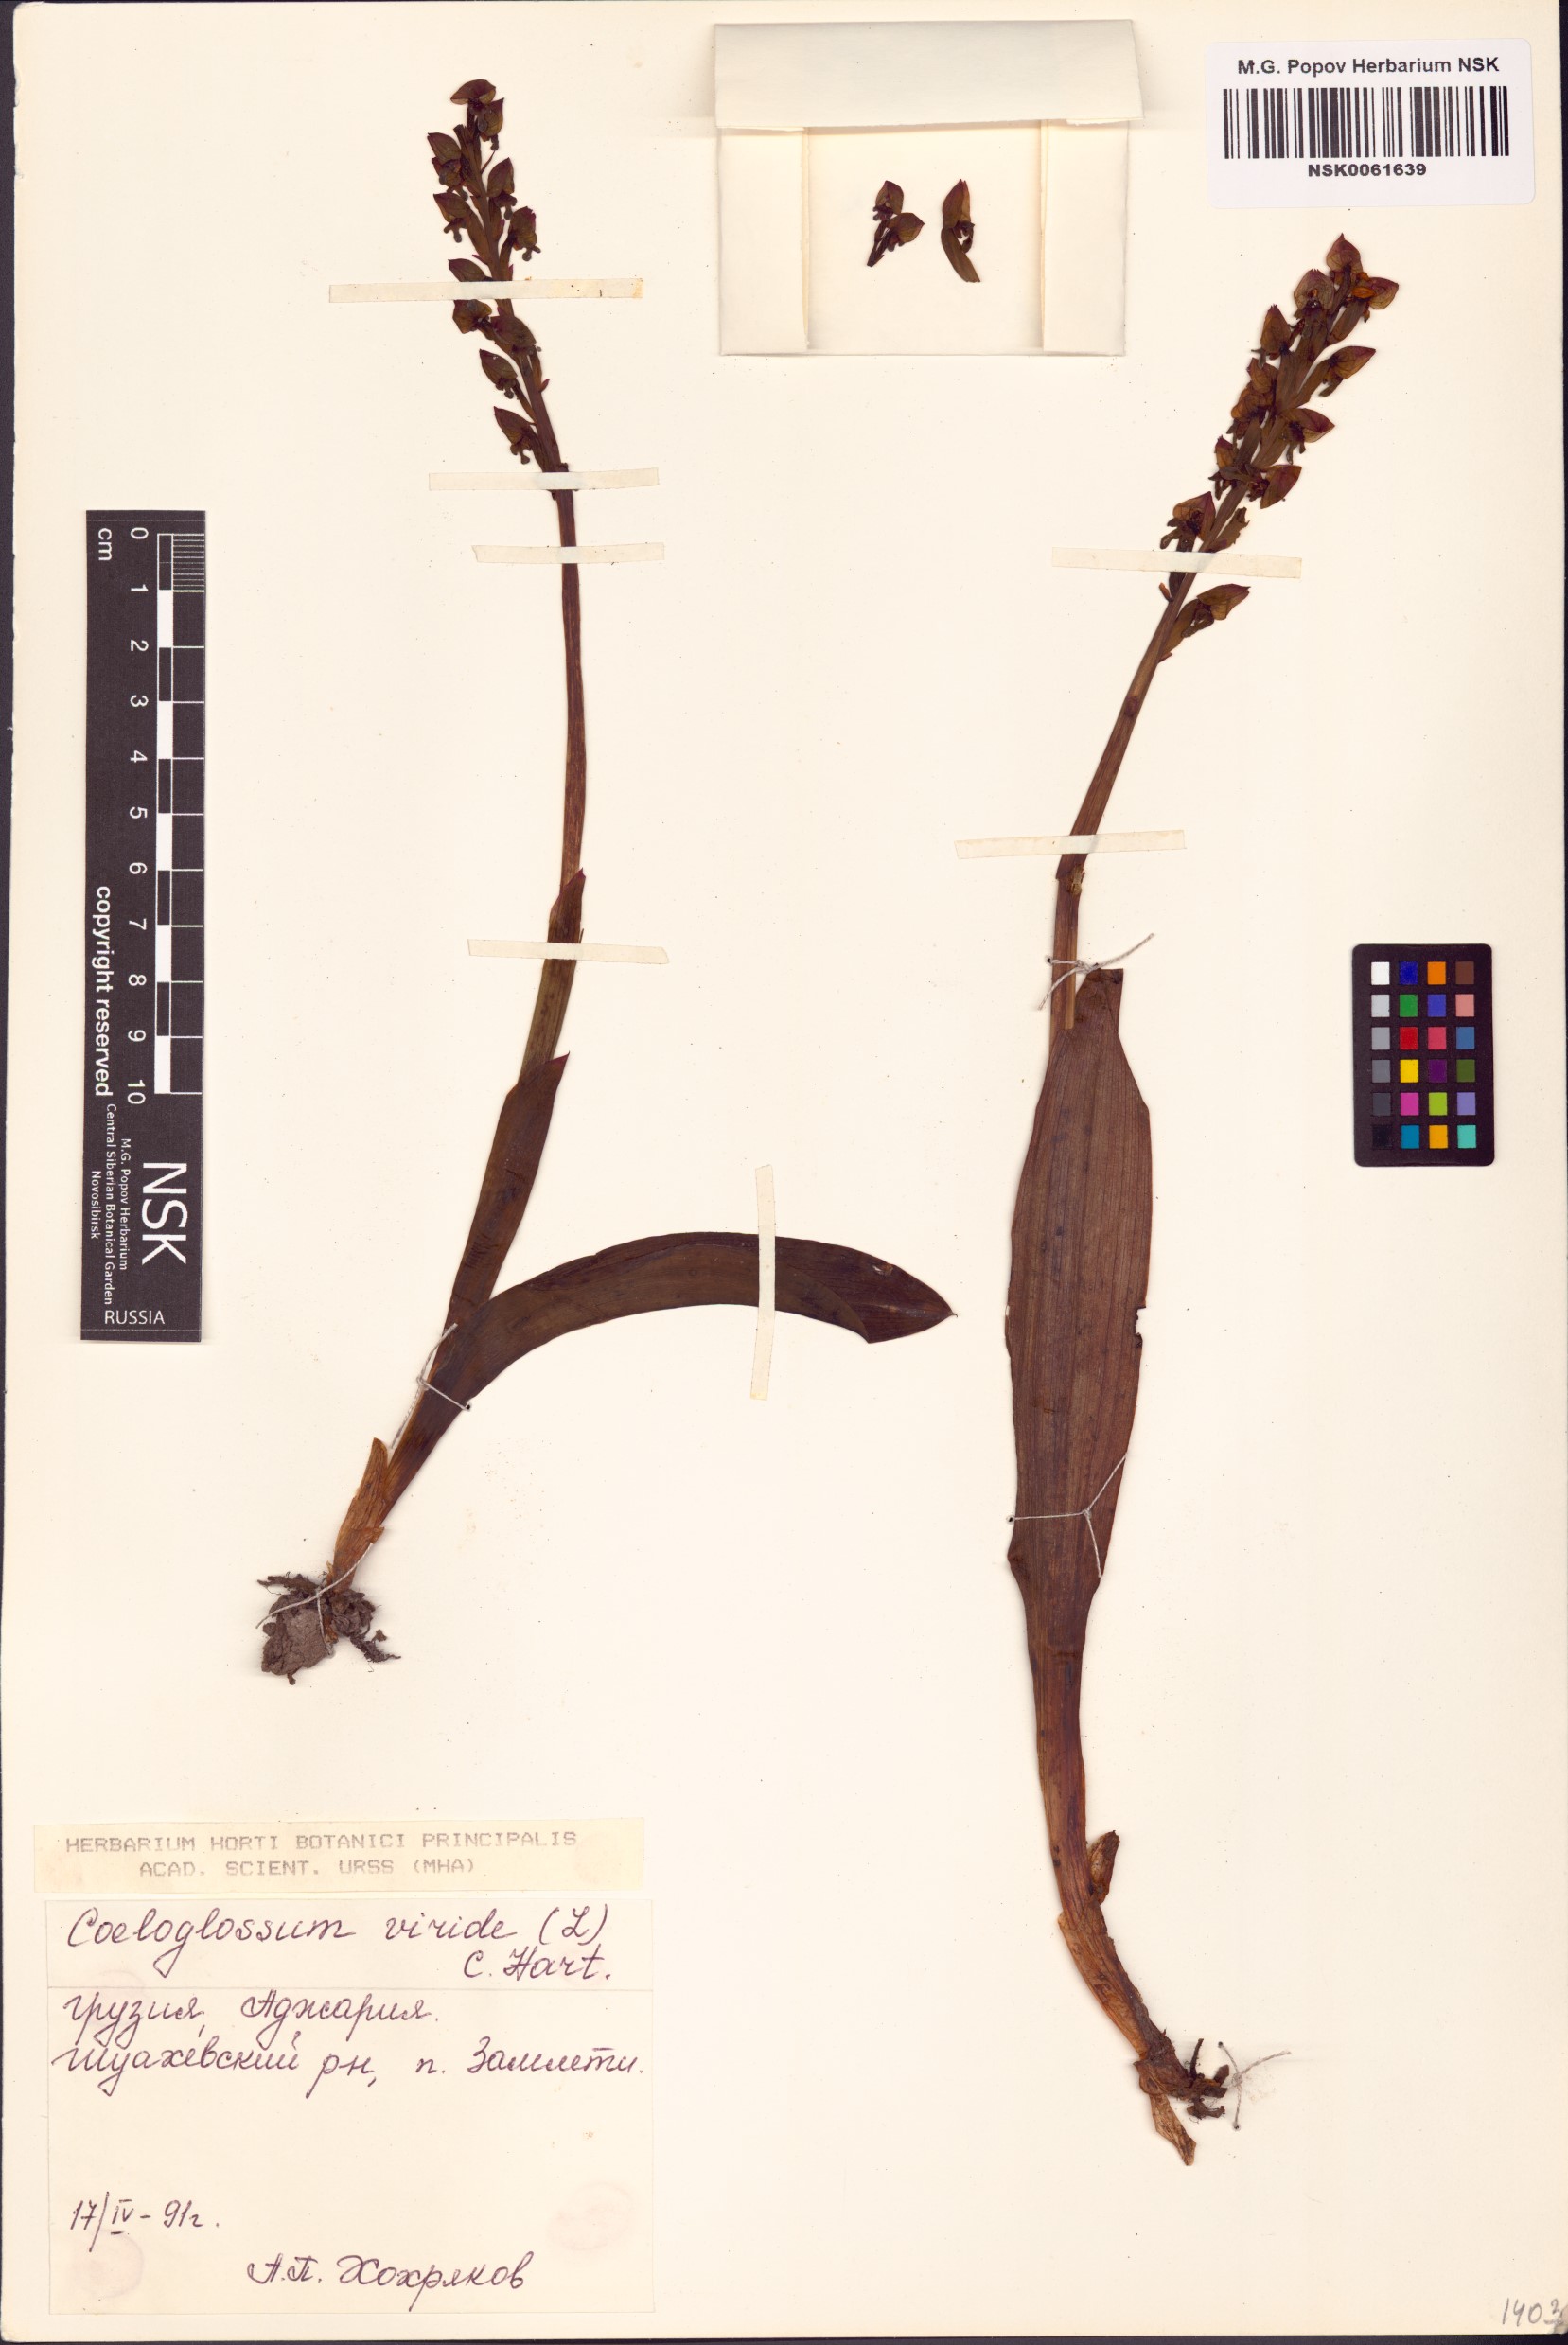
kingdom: Plantae
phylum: Tracheophyta
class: Liliopsida
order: Asparagales
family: Orchidaceae
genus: Dactylorhiza
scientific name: Dactylorhiza viridis
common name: Longbract frog orchid
